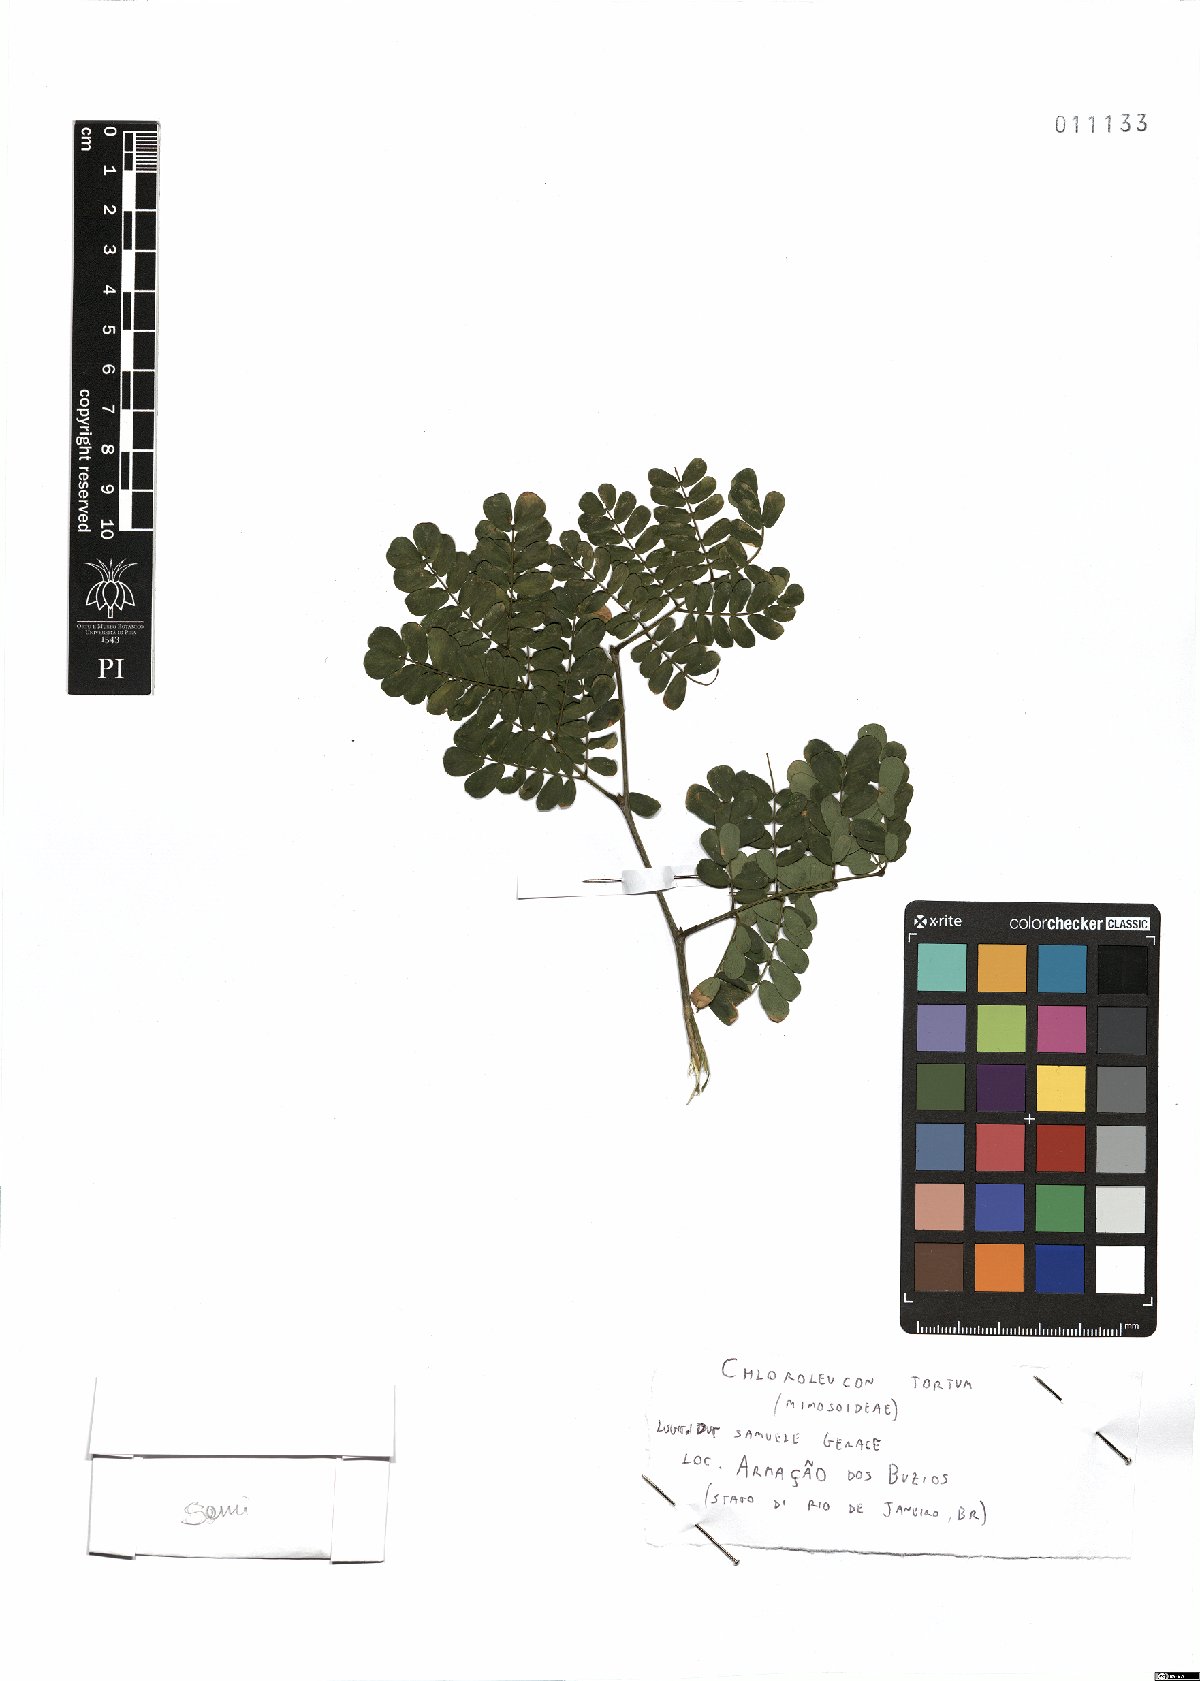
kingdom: Plantae
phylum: Tracheophyta
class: Magnoliopsida
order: Fabales
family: Fabaceae
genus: Chloroleucon
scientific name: Chloroleucon tortum
